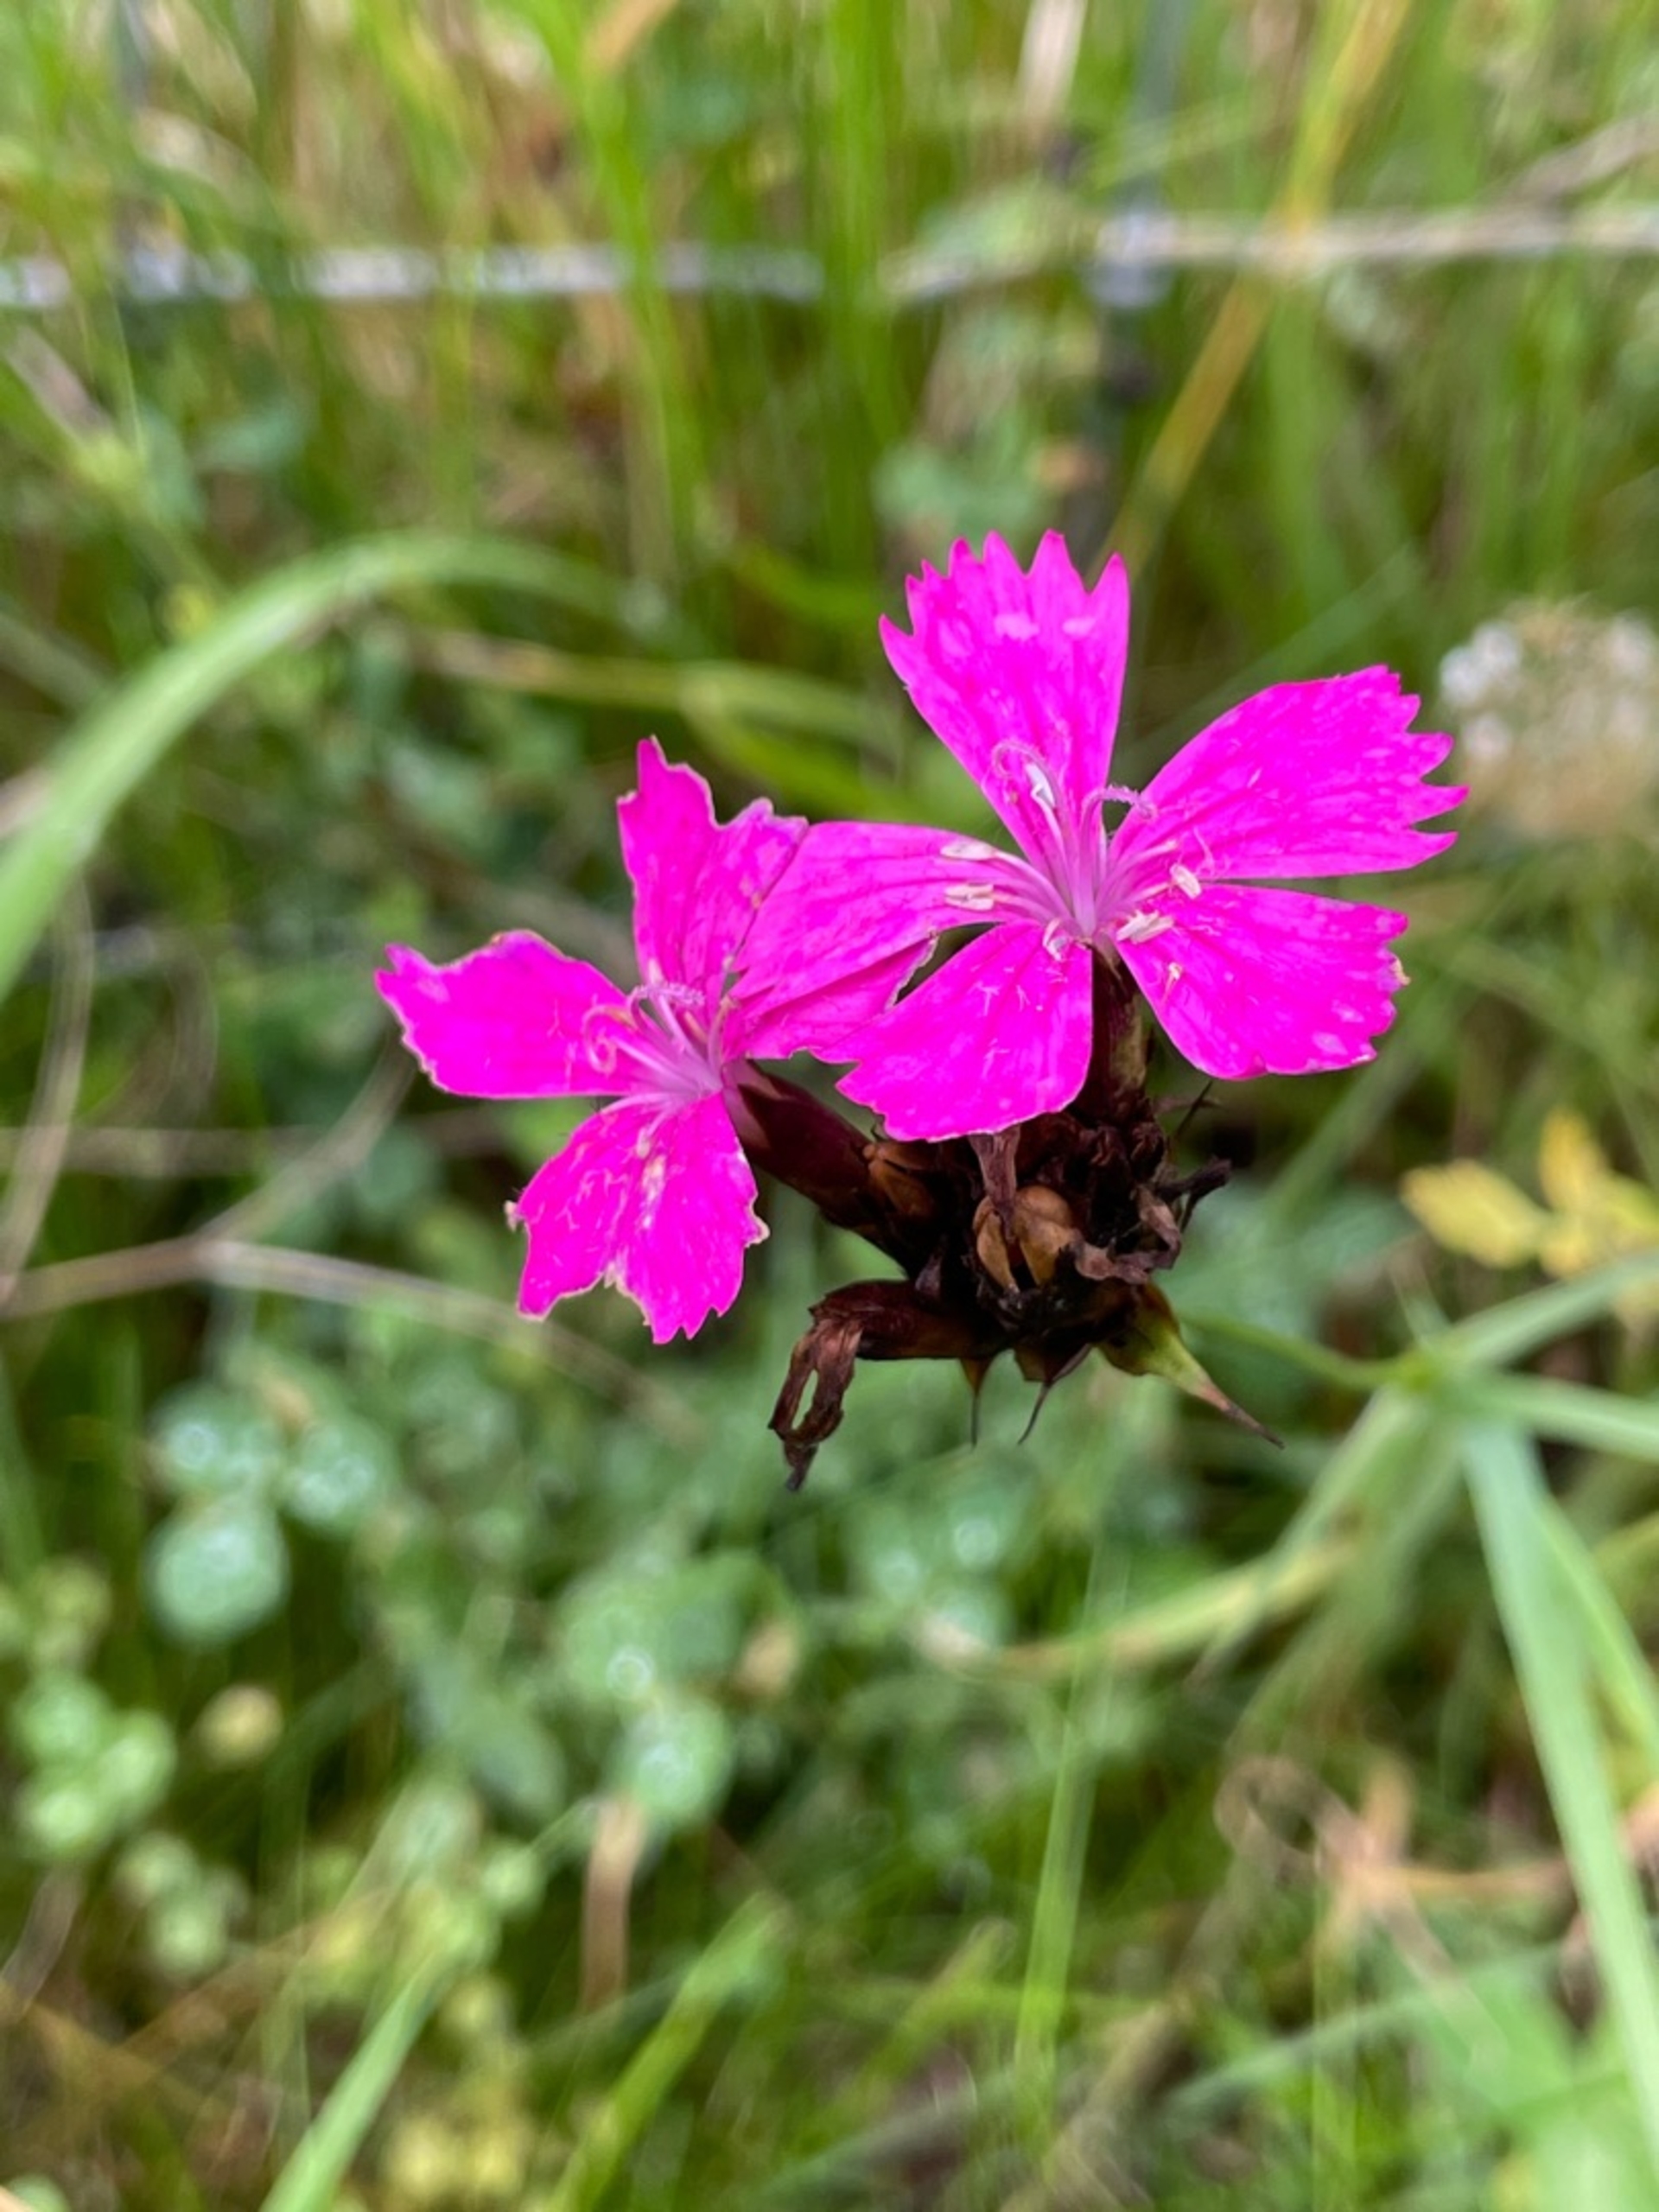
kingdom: Plantae
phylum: Tracheophyta
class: Magnoliopsida
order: Caryophyllales
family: Caryophyllaceae
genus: Dianthus
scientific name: Dianthus carthusianorum
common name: Karteuser-nellike
